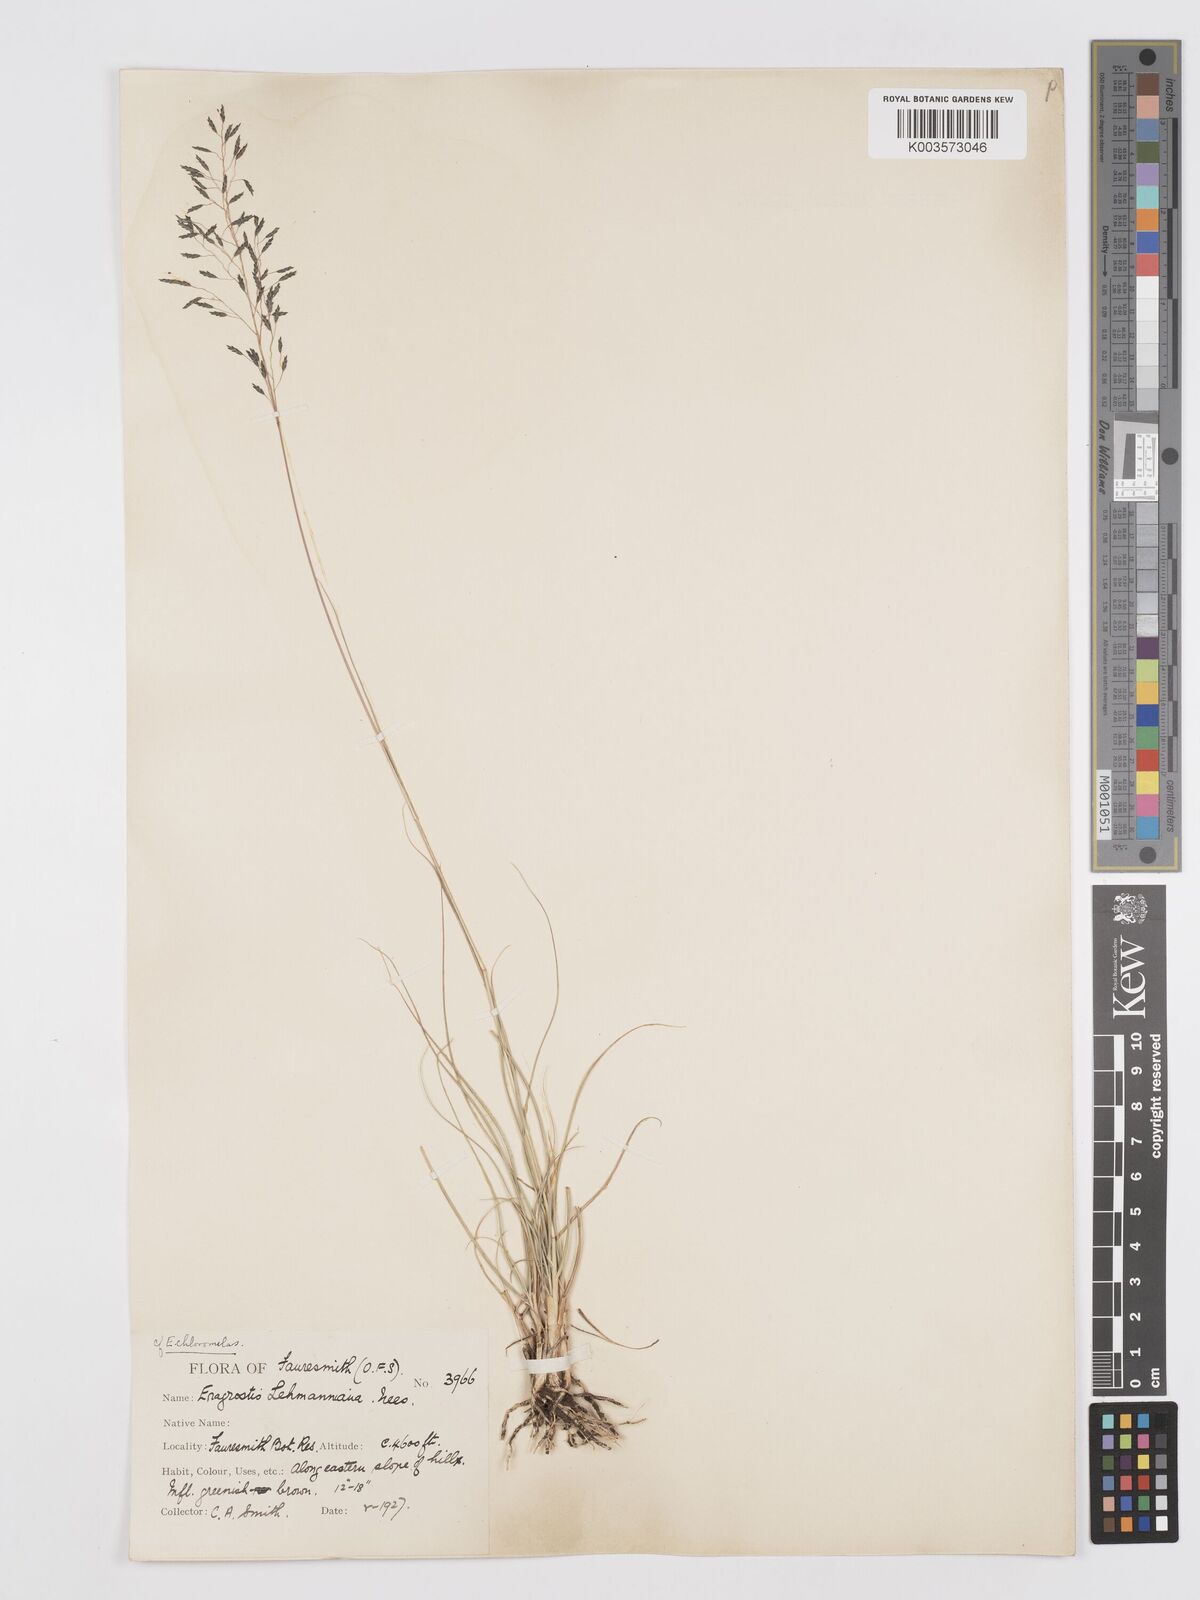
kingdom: Plantae
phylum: Tracheophyta
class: Liliopsida
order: Poales
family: Poaceae
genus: Eragrostis
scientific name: Eragrostis curvula
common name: African love-grass
